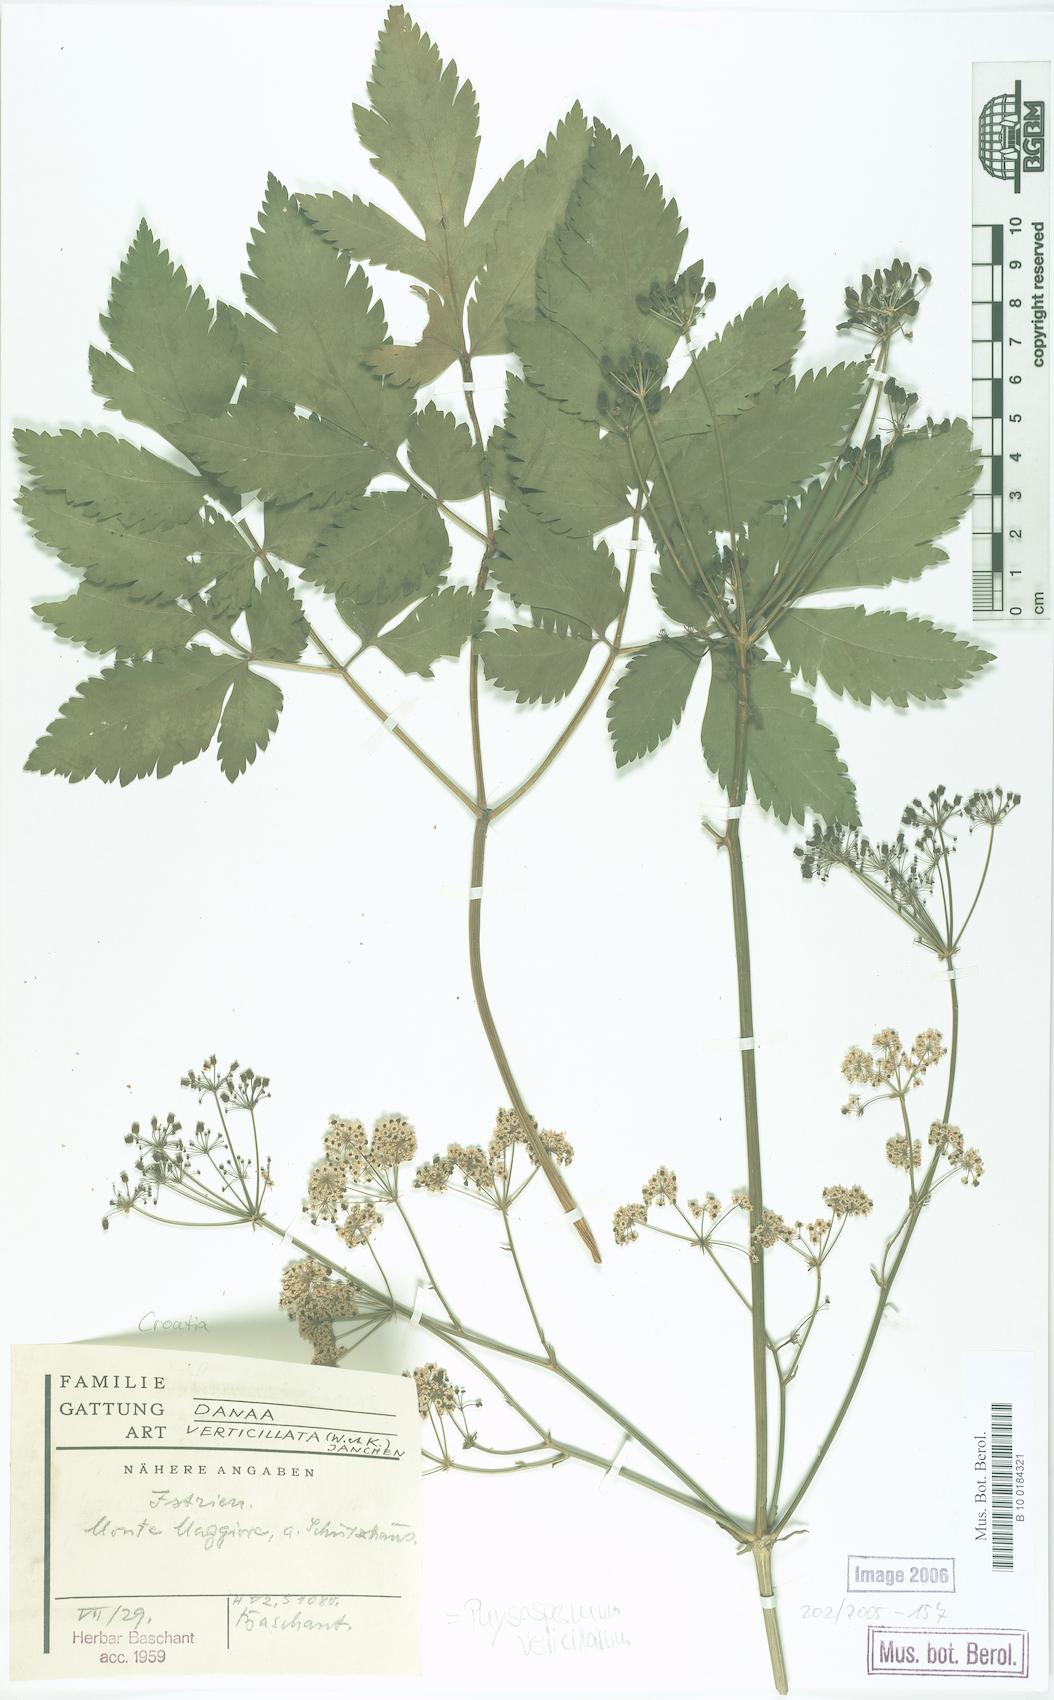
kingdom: Plantae
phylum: Tracheophyta
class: Magnoliopsida
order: Apiales
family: Apiaceae
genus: Physospermum
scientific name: Physospermum verticillatum
